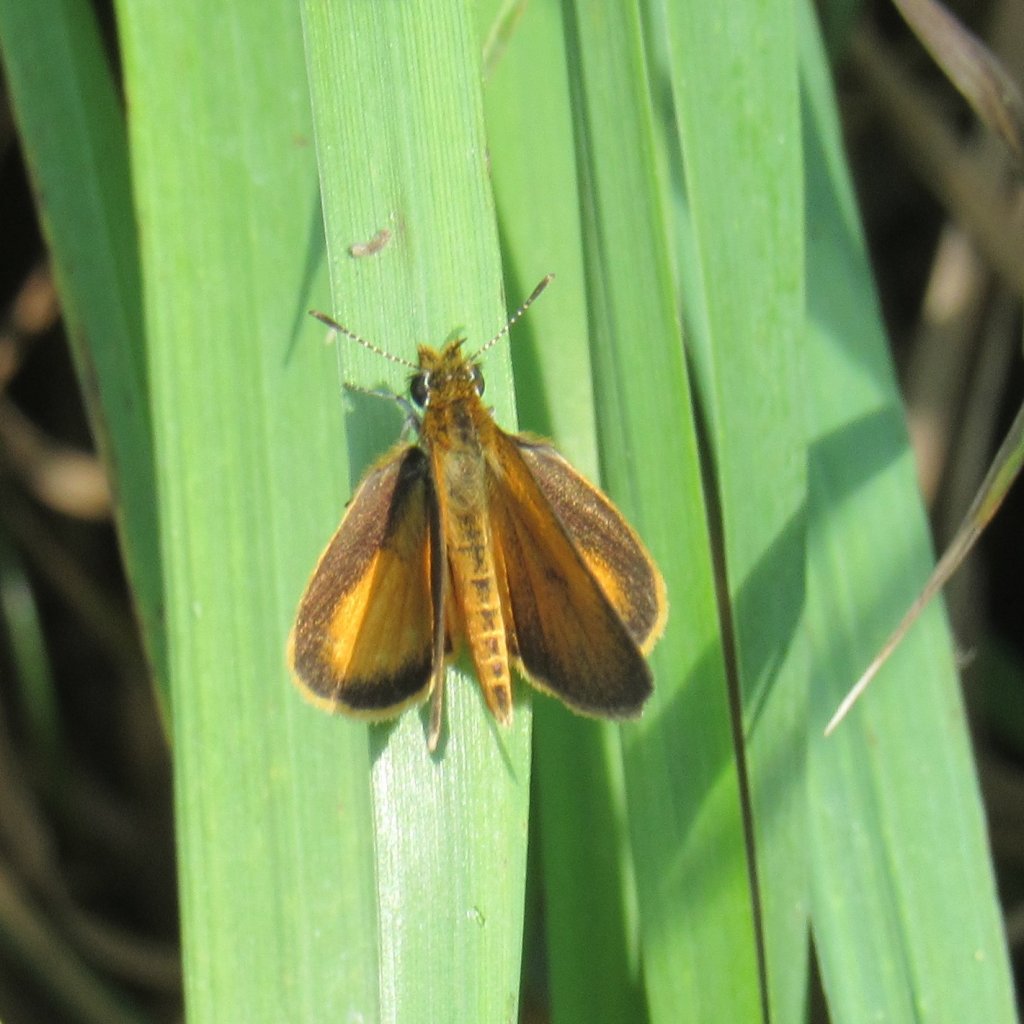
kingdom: Animalia
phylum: Arthropoda
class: Insecta
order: Lepidoptera
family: Hesperiidae
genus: Ancyloxypha
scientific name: Ancyloxypha numitor
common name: Least Skipper
